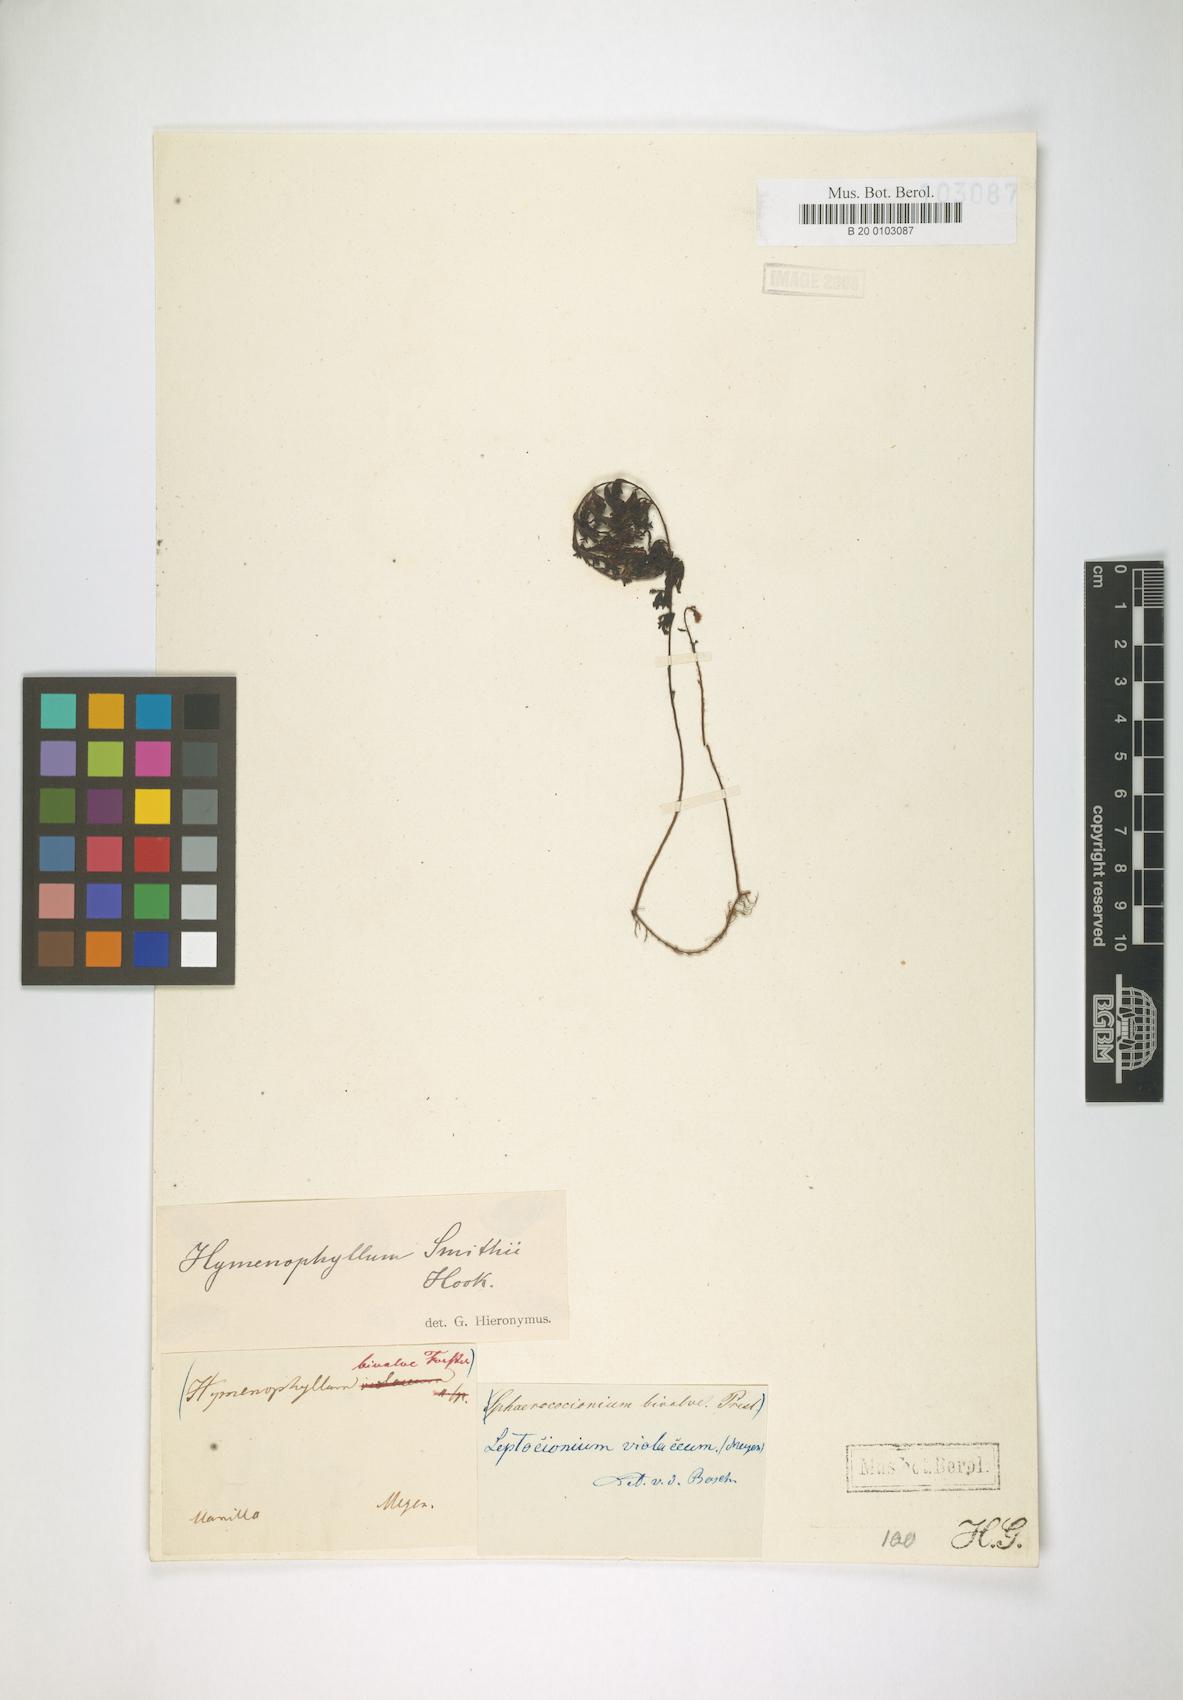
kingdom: Plantae
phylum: Tracheophyta
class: Polypodiopsida
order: Hymenophyllales
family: Hymenophyllaceae
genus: Hymenophyllum
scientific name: Hymenophyllum violaceum
